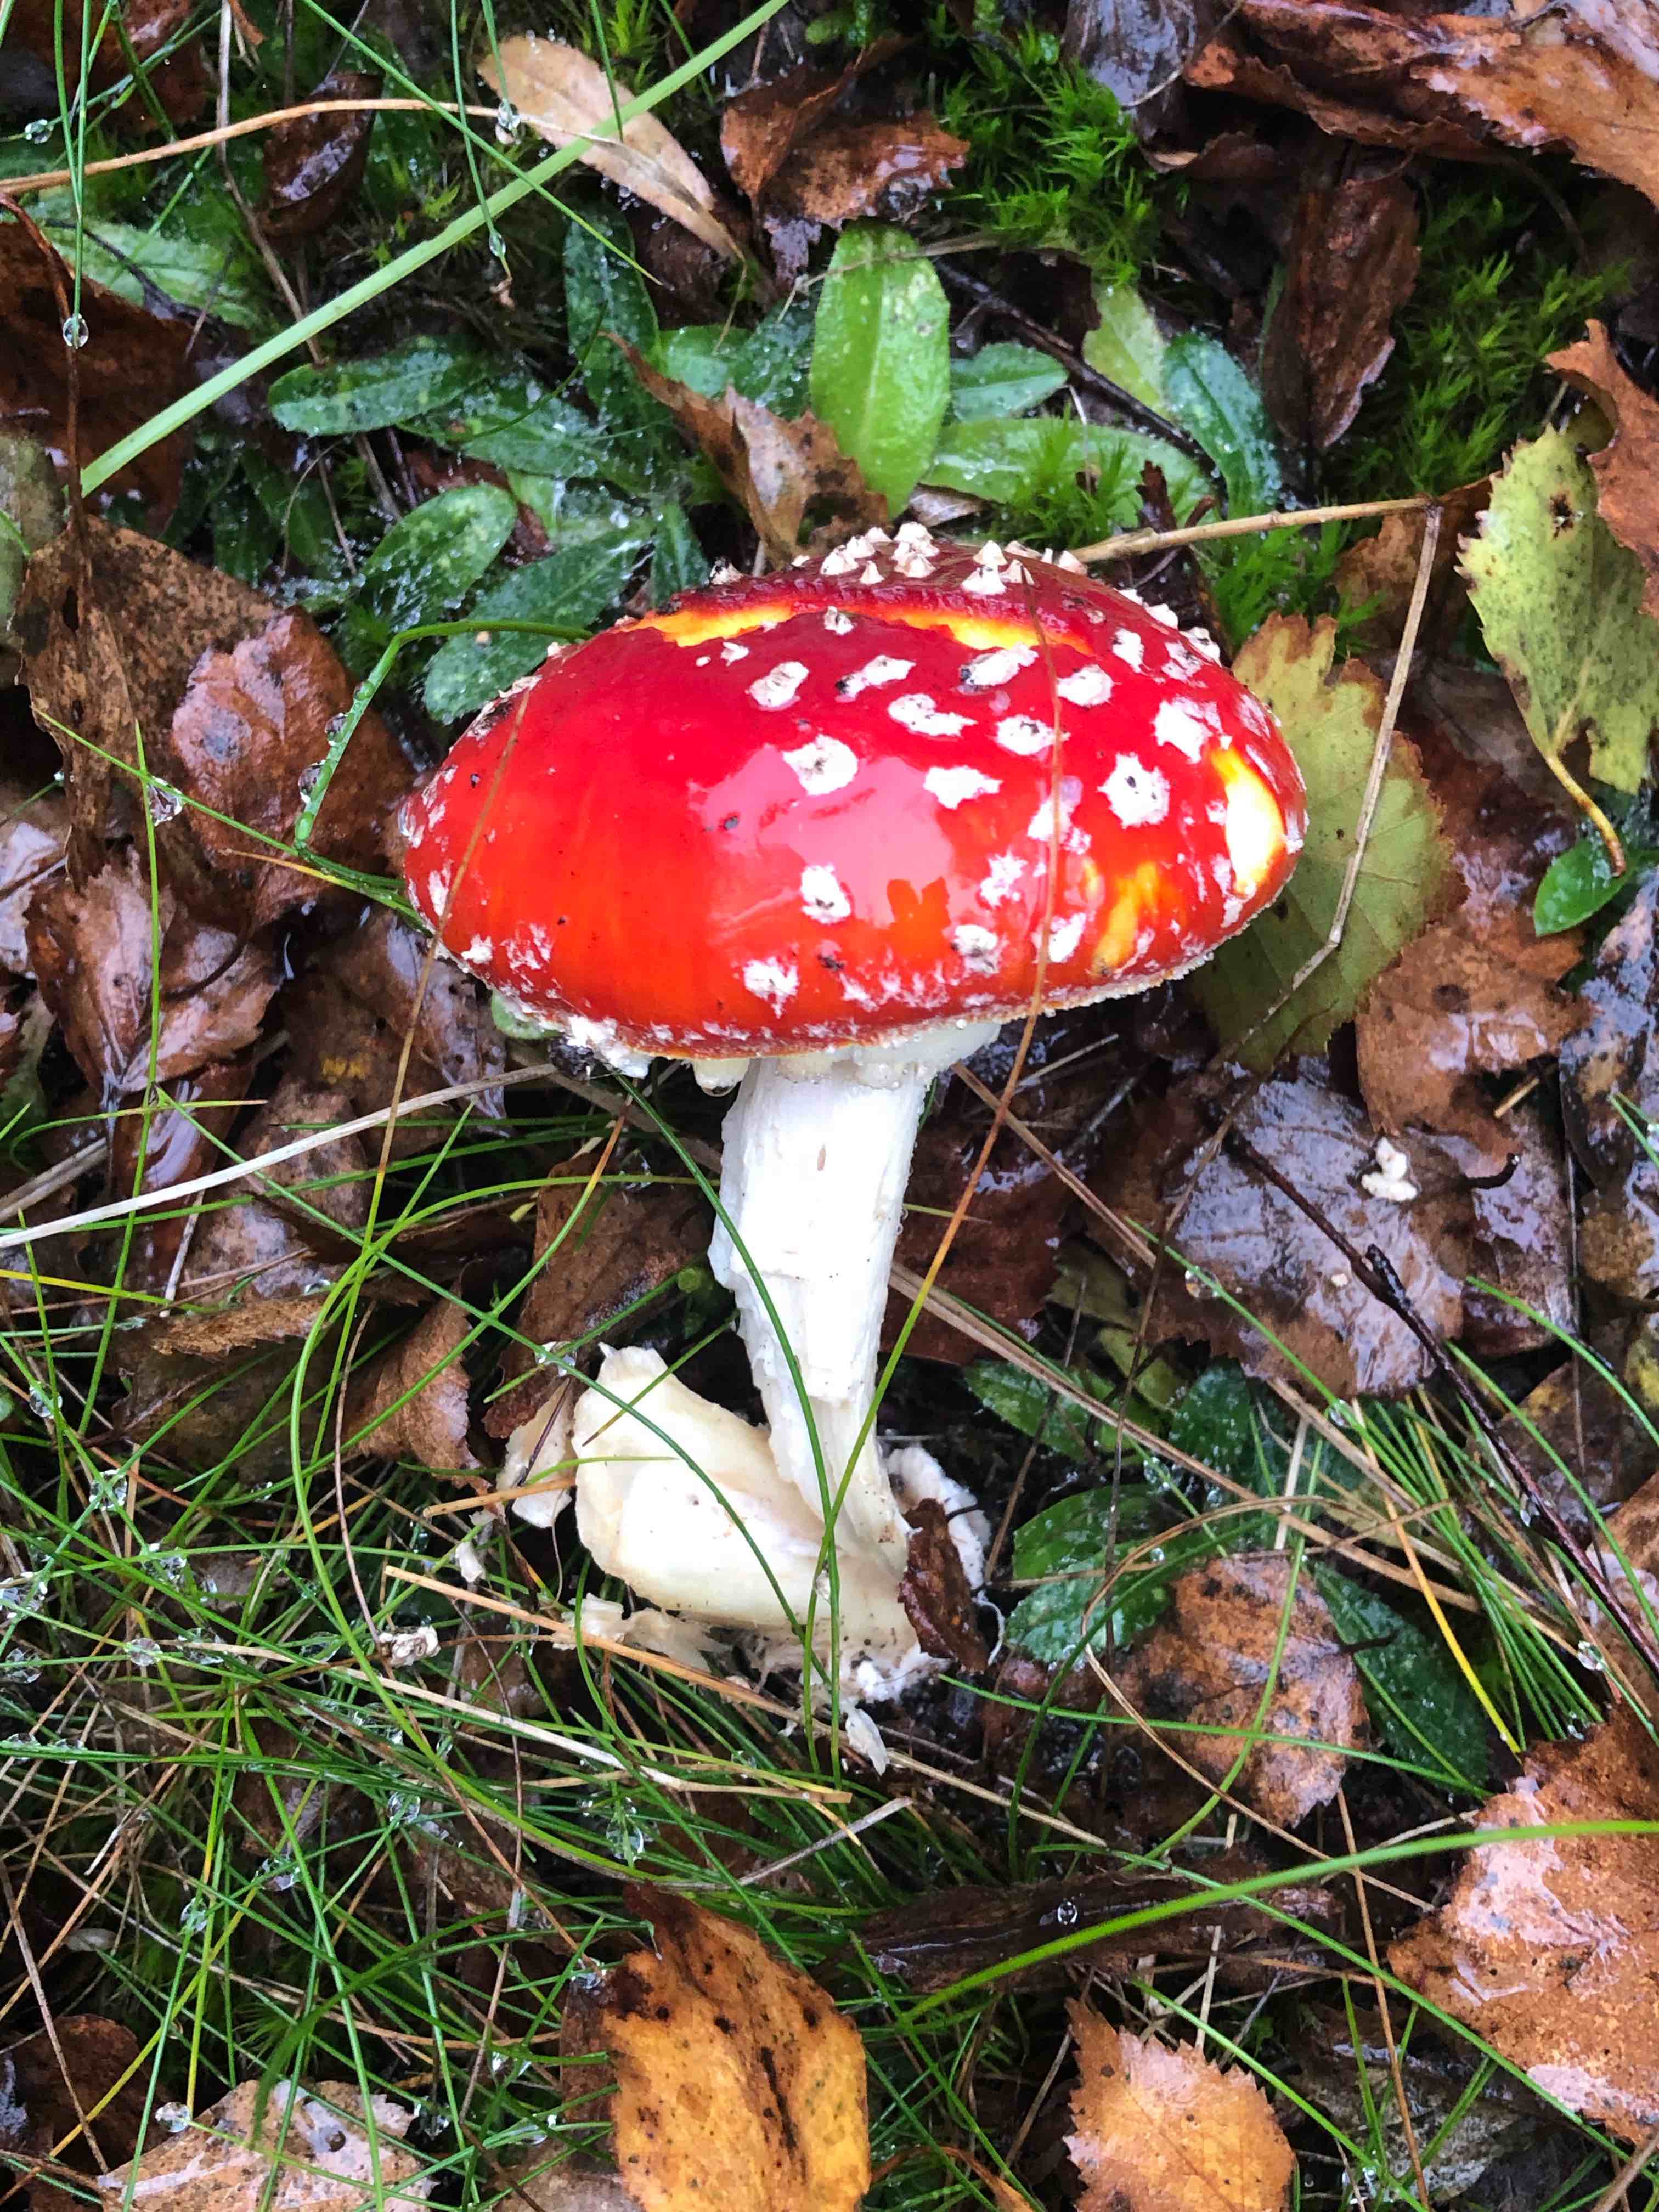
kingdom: Fungi
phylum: Basidiomycota
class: Agaricomycetes
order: Agaricales
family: Amanitaceae
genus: Amanita
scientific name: Amanita muscaria
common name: rød fluesvamp
